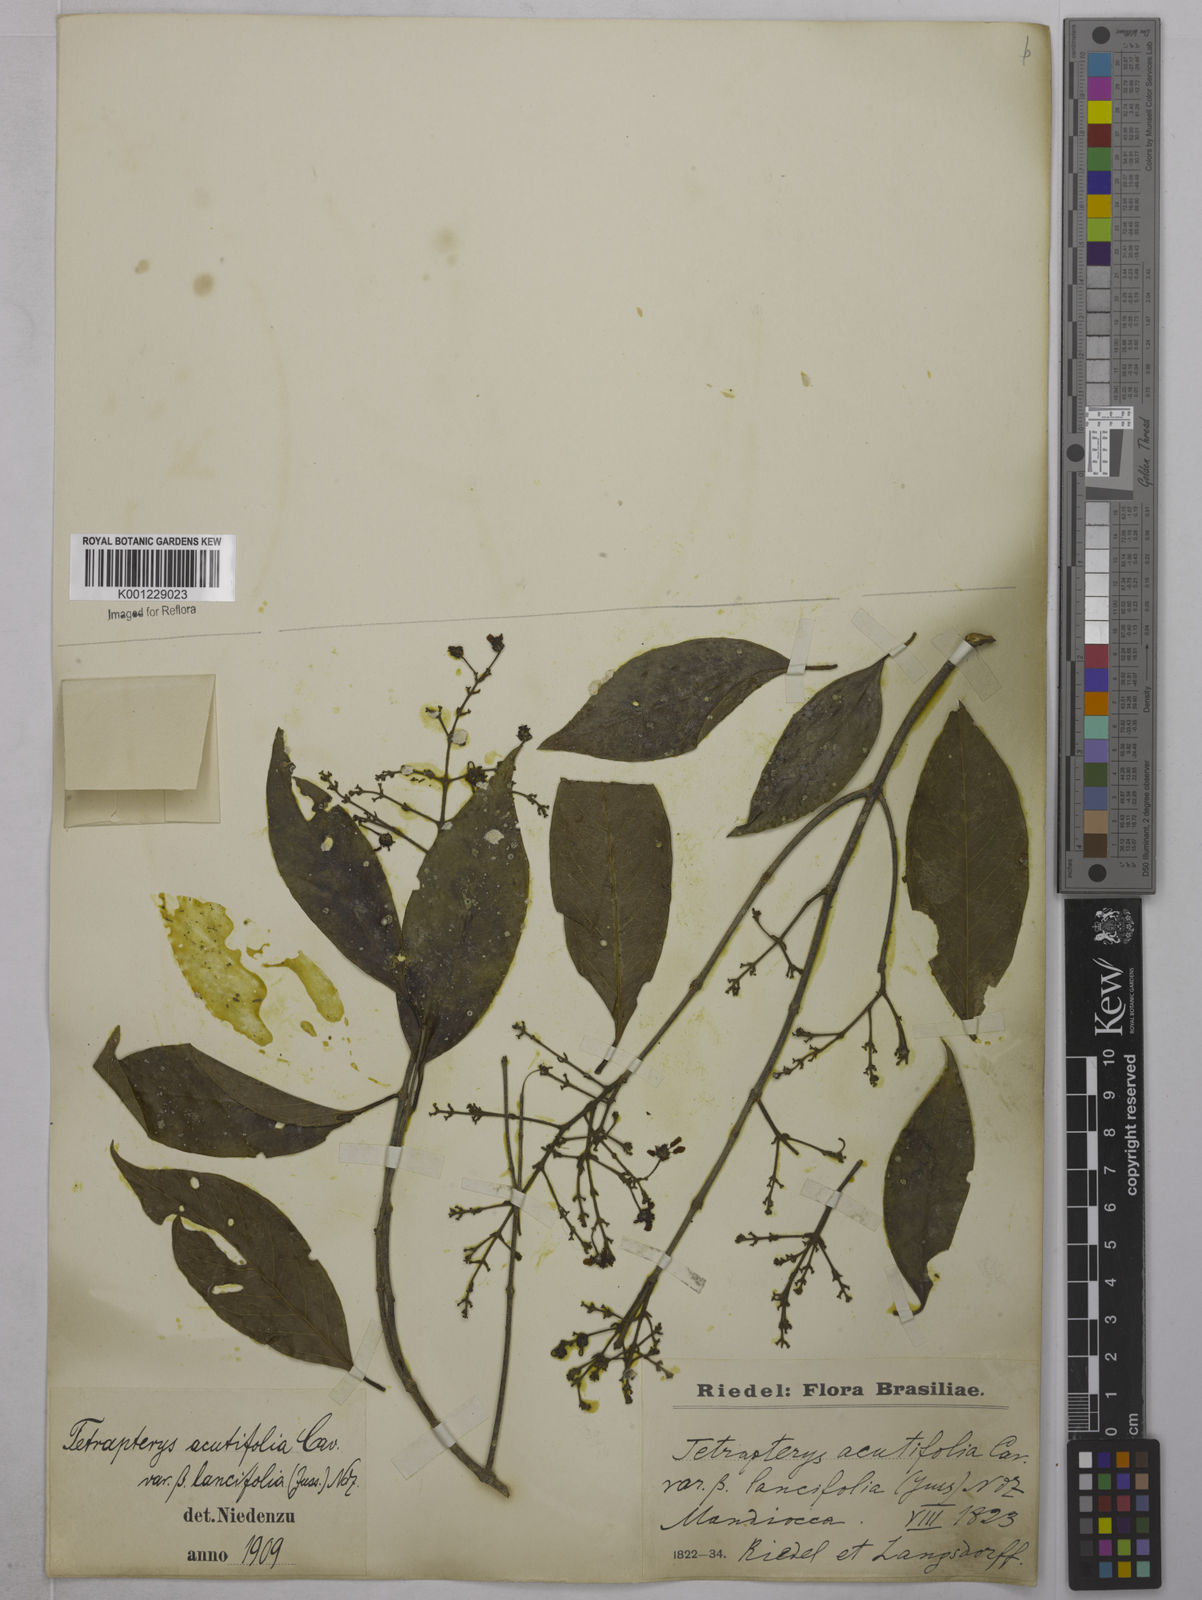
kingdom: Plantae
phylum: Tracheophyta
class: Magnoliopsida
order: Malpighiales
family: Malpighiaceae
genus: Niedenzuella
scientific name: Niedenzuella acutifolia
